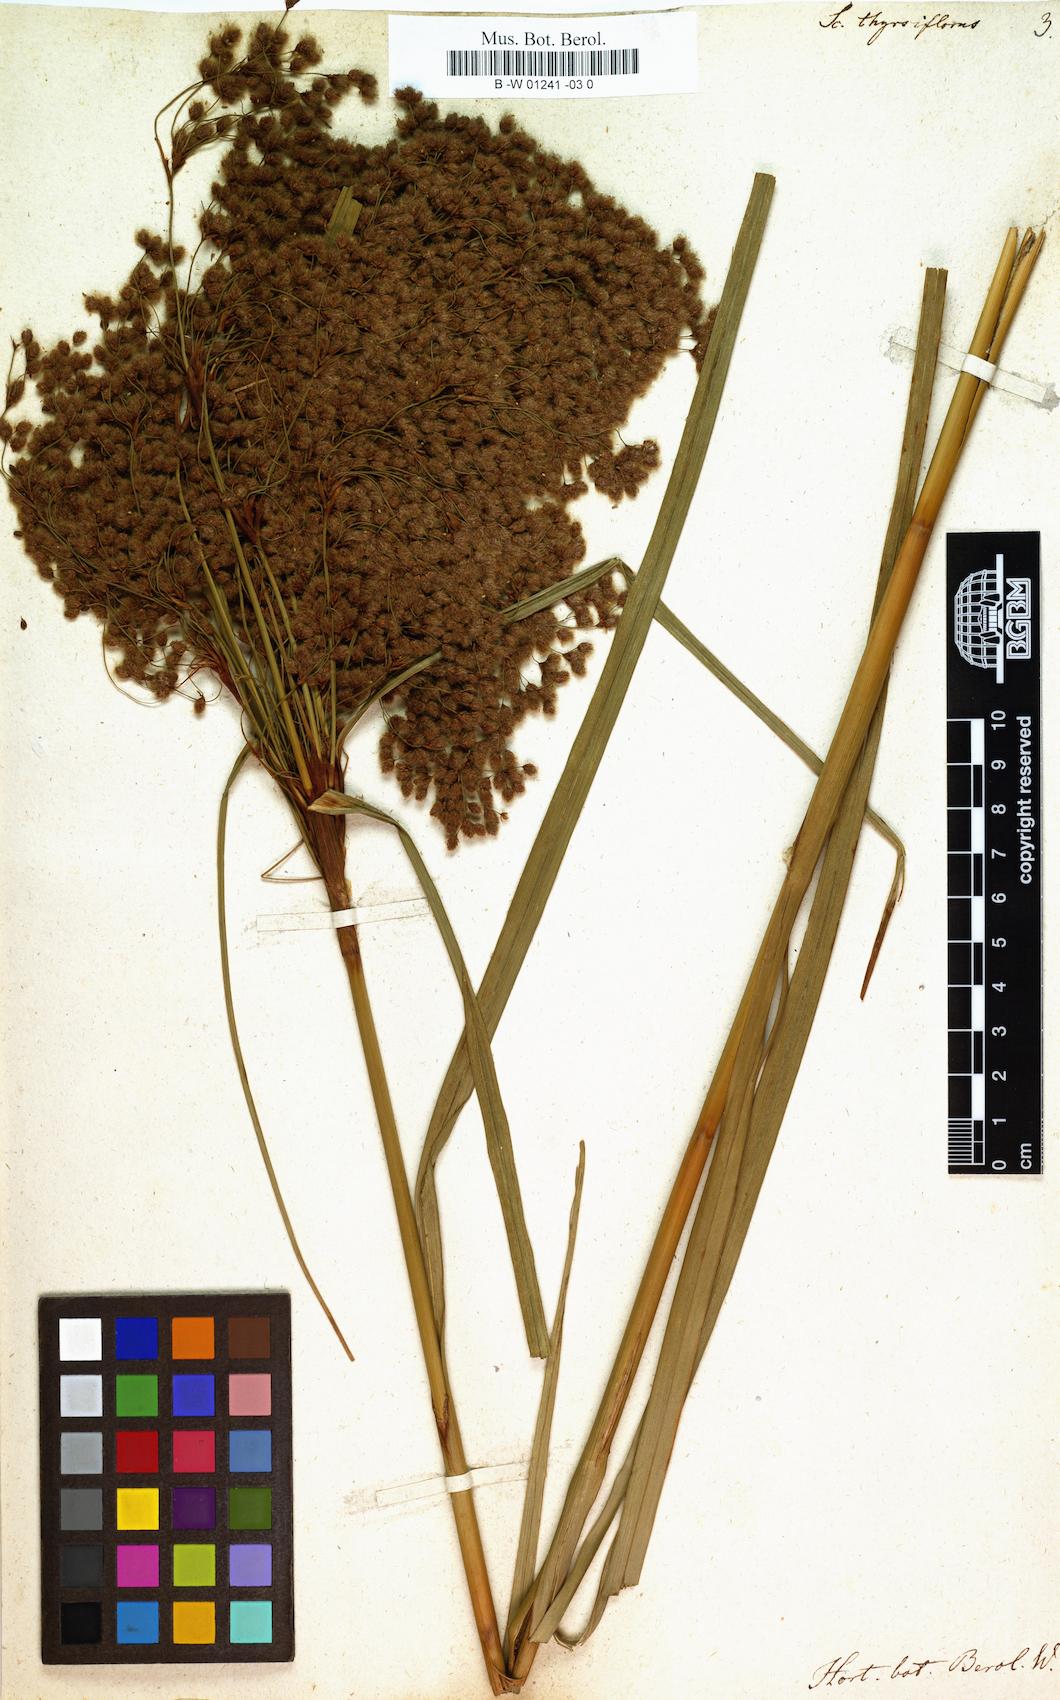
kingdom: Plantae
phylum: Tracheophyta
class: Liliopsida
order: Poales
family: Cyperaceae
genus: Scirpus
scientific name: Scirpus cyperinus
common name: Black-sheathed bulrush
